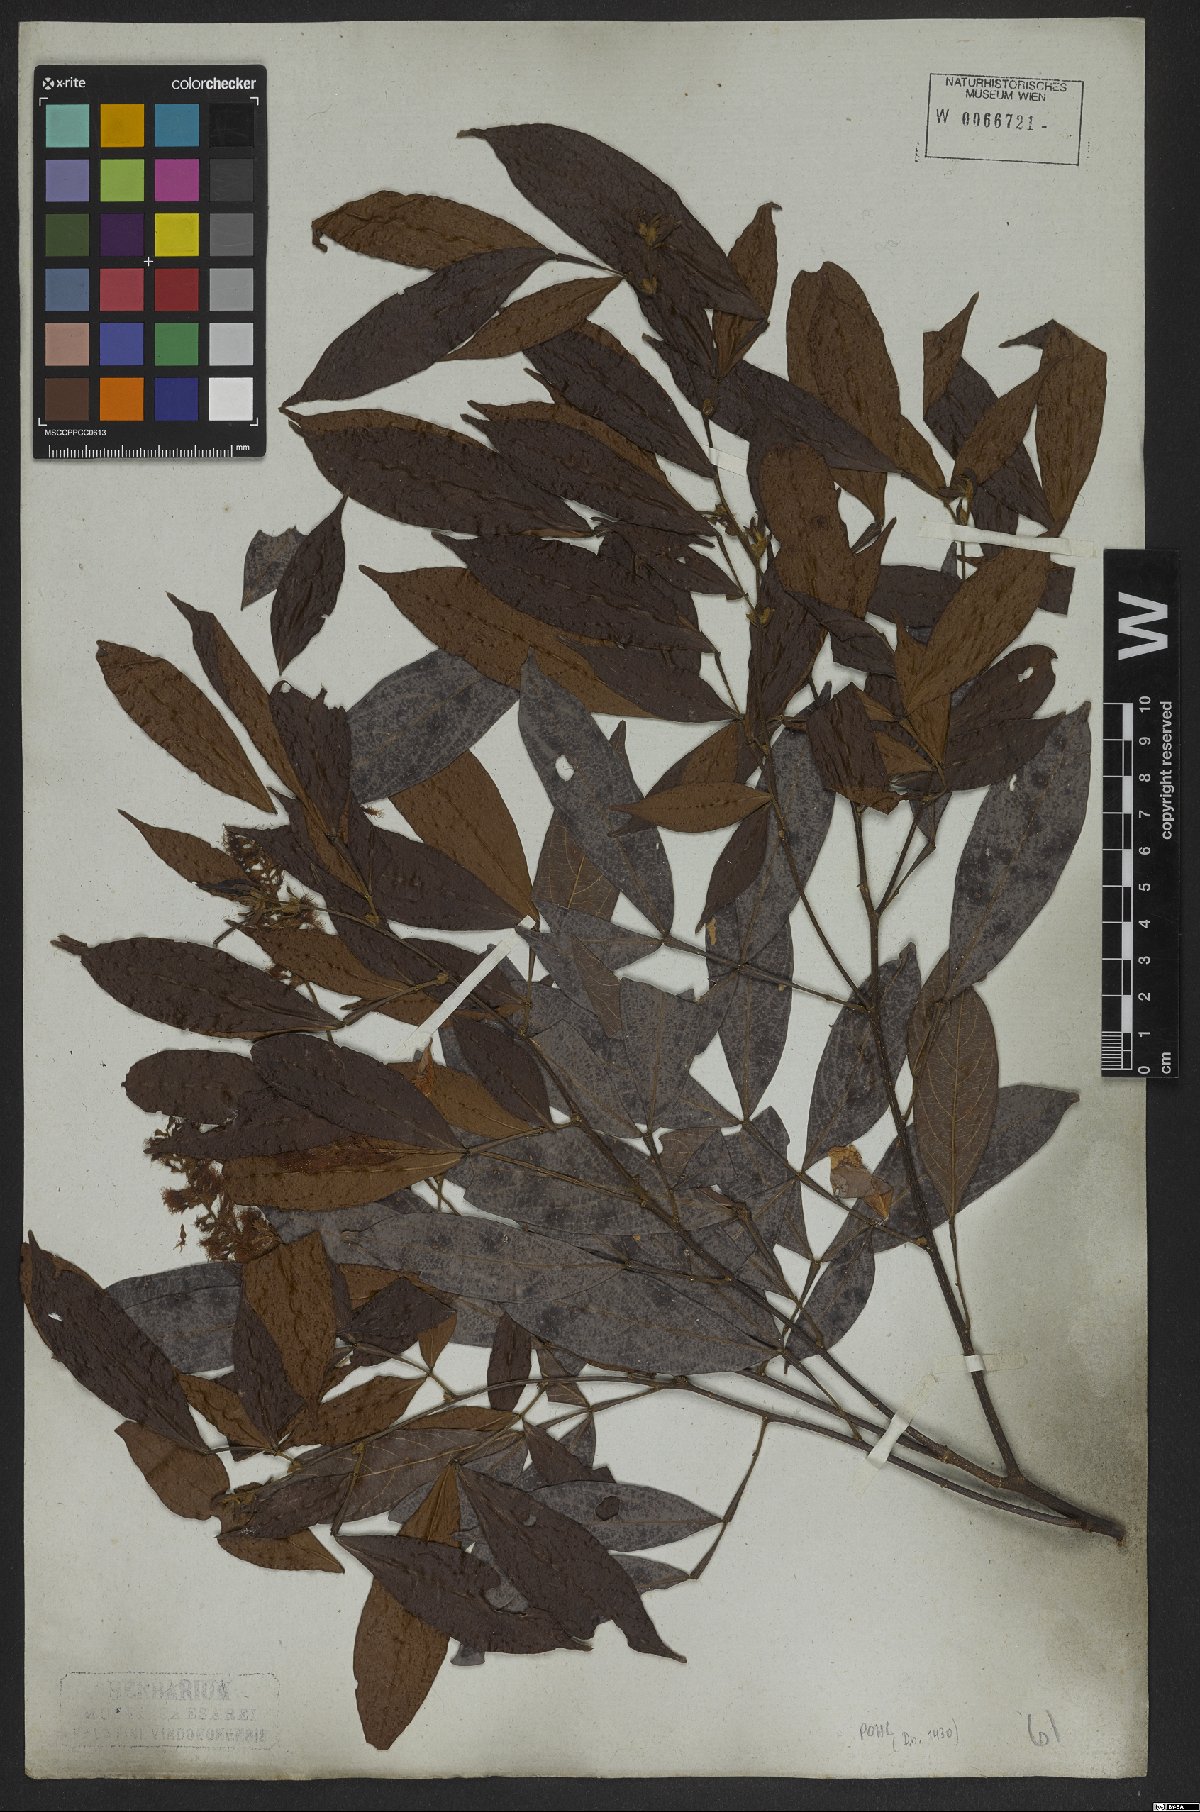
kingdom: Plantae
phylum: Tracheophyta
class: Magnoliopsida
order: Fabales
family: Fabaceae
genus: Inga
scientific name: Inga marginata
